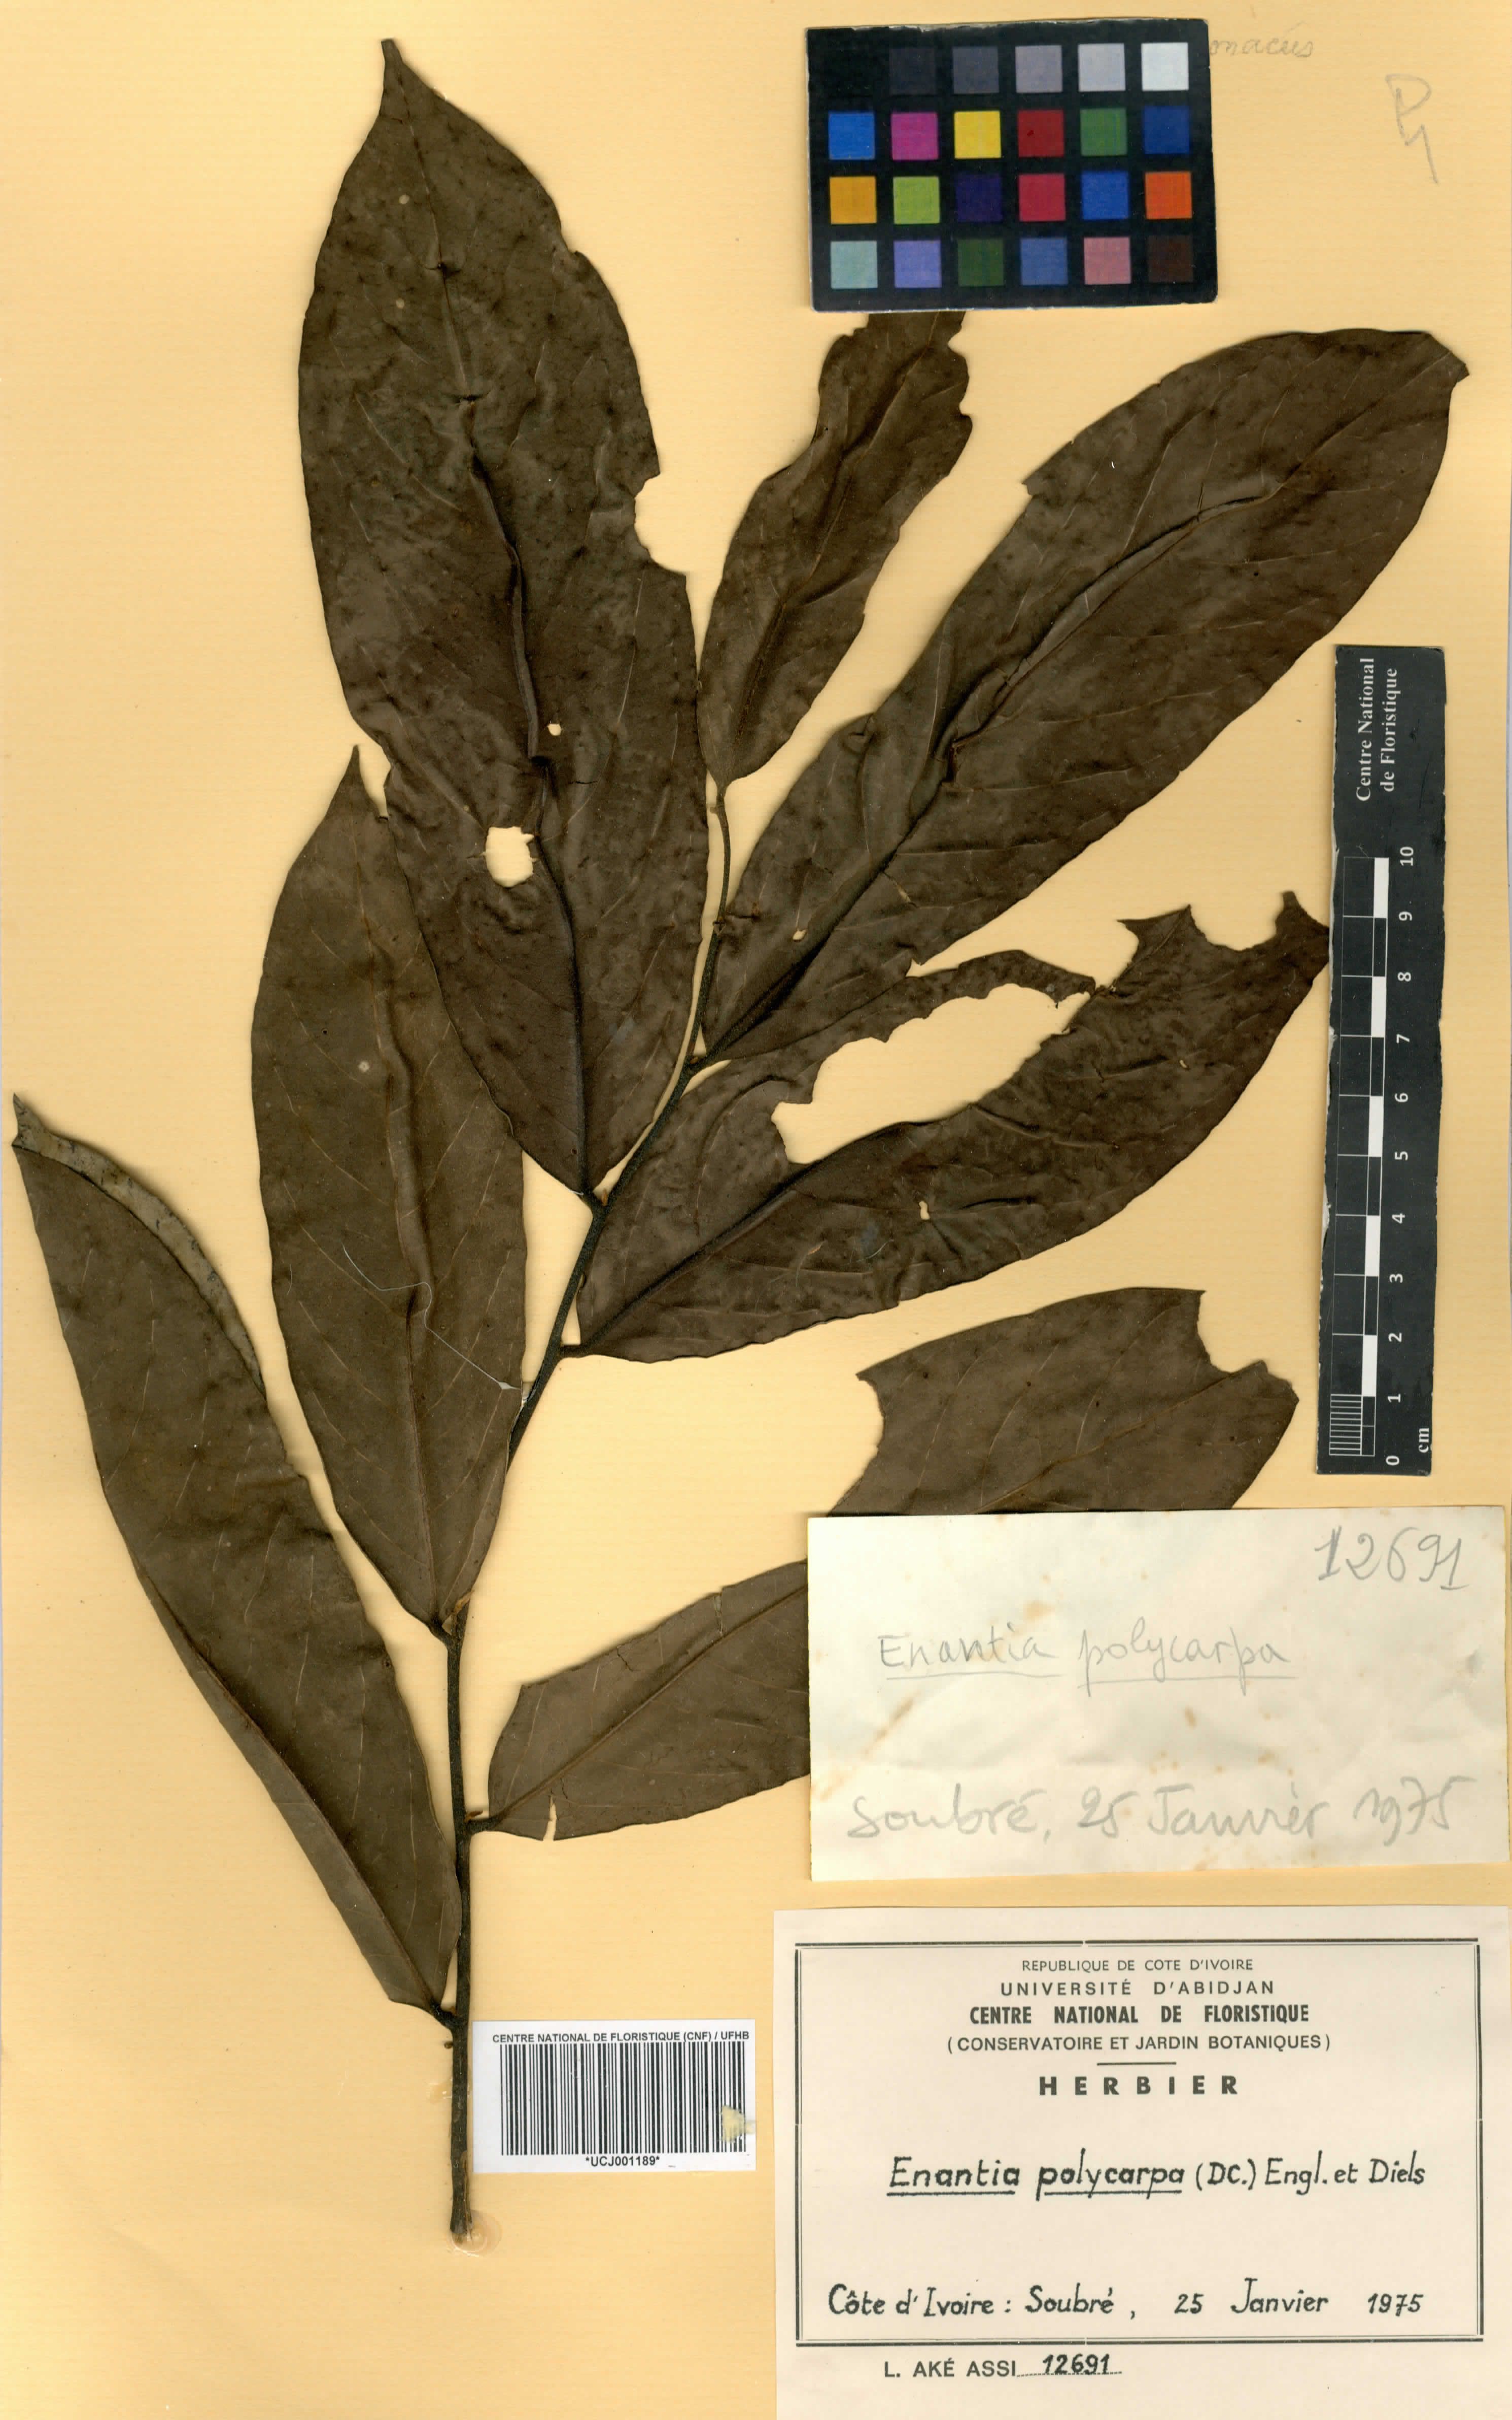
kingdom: Plantae
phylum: Tracheophyta
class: Magnoliopsida
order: Magnoliales
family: Annonaceae
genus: Annickia
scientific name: Annickia polycarpa
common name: African yellowwood
